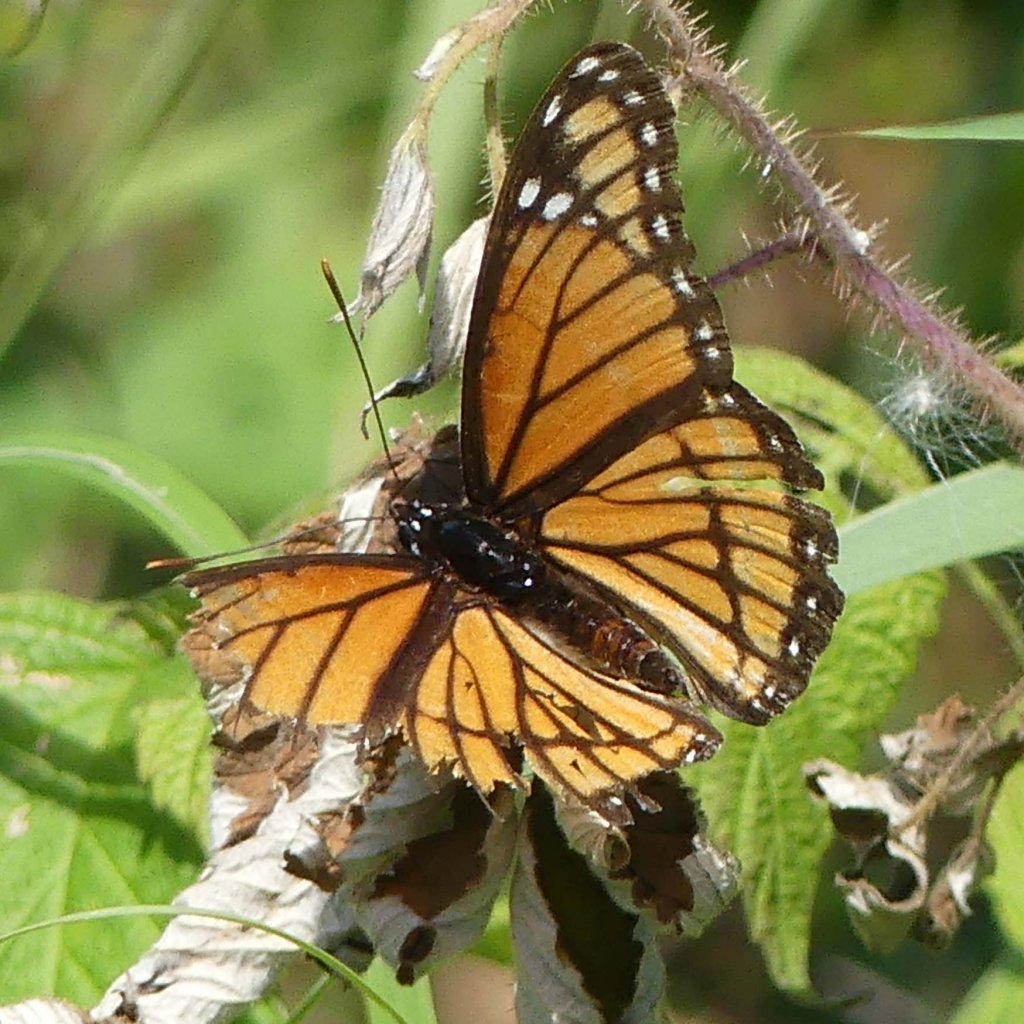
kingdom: Animalia
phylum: Arthropoda
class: Insecta
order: Lepidoptera
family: Nymphalidae
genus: Limenitis
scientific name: Limenitis archippus
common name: Viceroy
